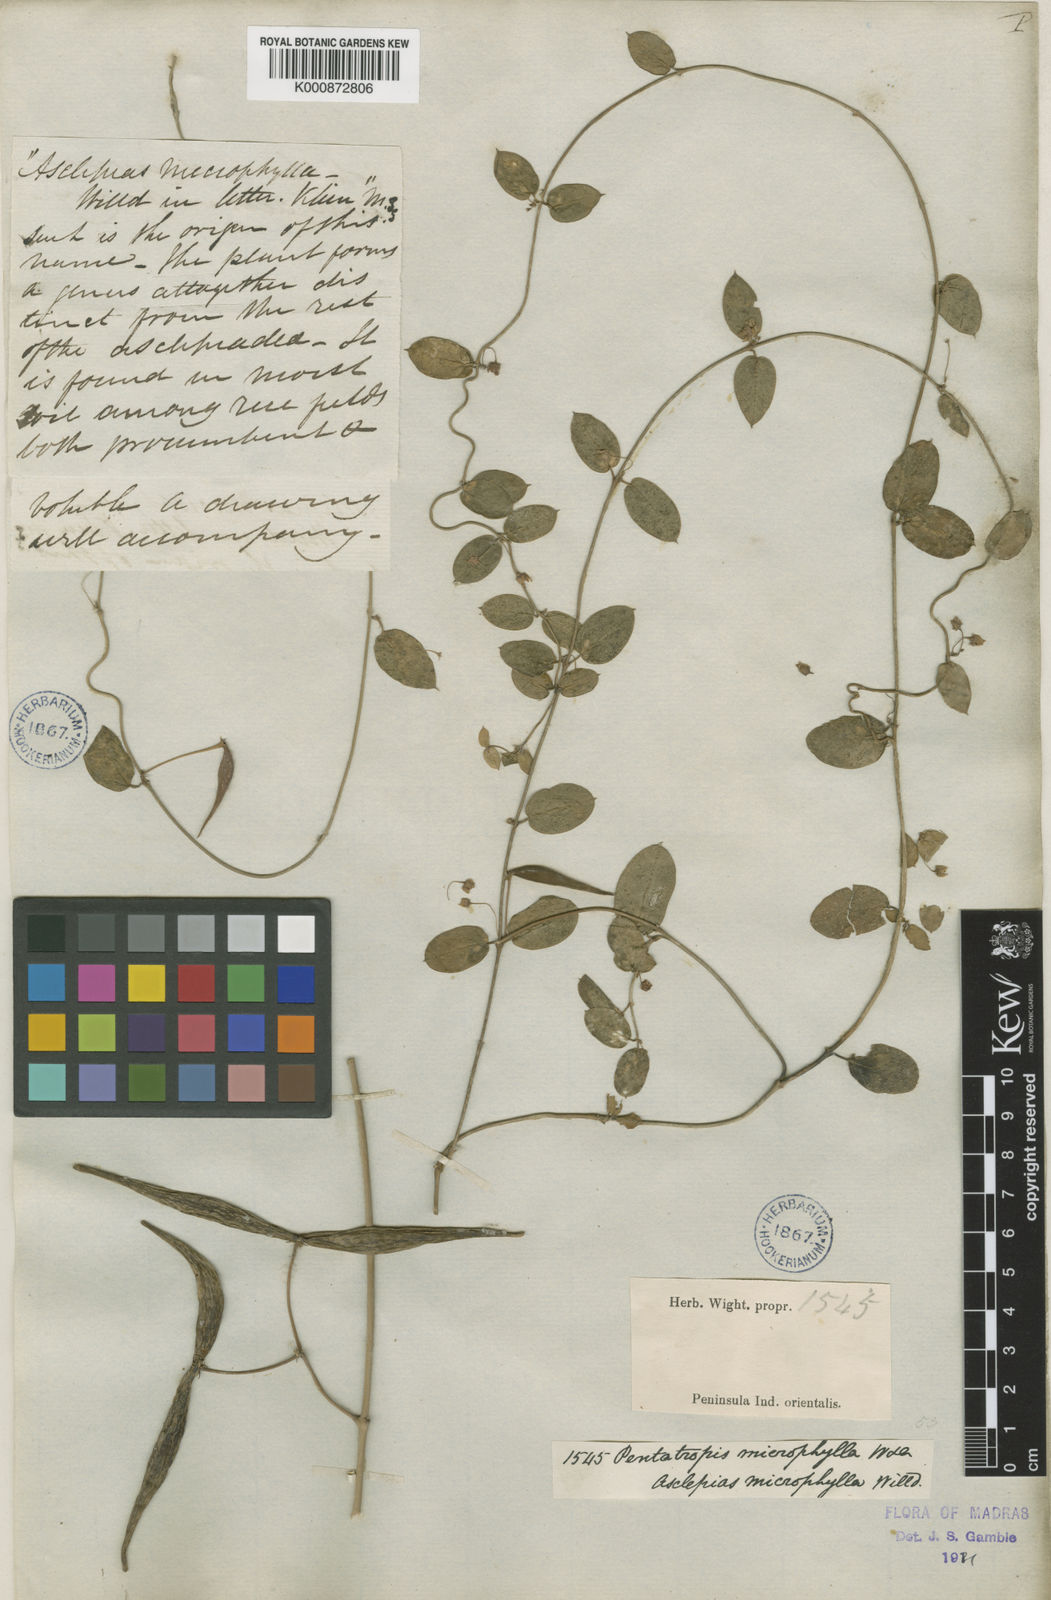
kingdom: Plantae
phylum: Tracheophyta
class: Magnoliopsida
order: Gentianales
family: Apocynaceae
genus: Pentatropis
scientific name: Pentatropis capensis
